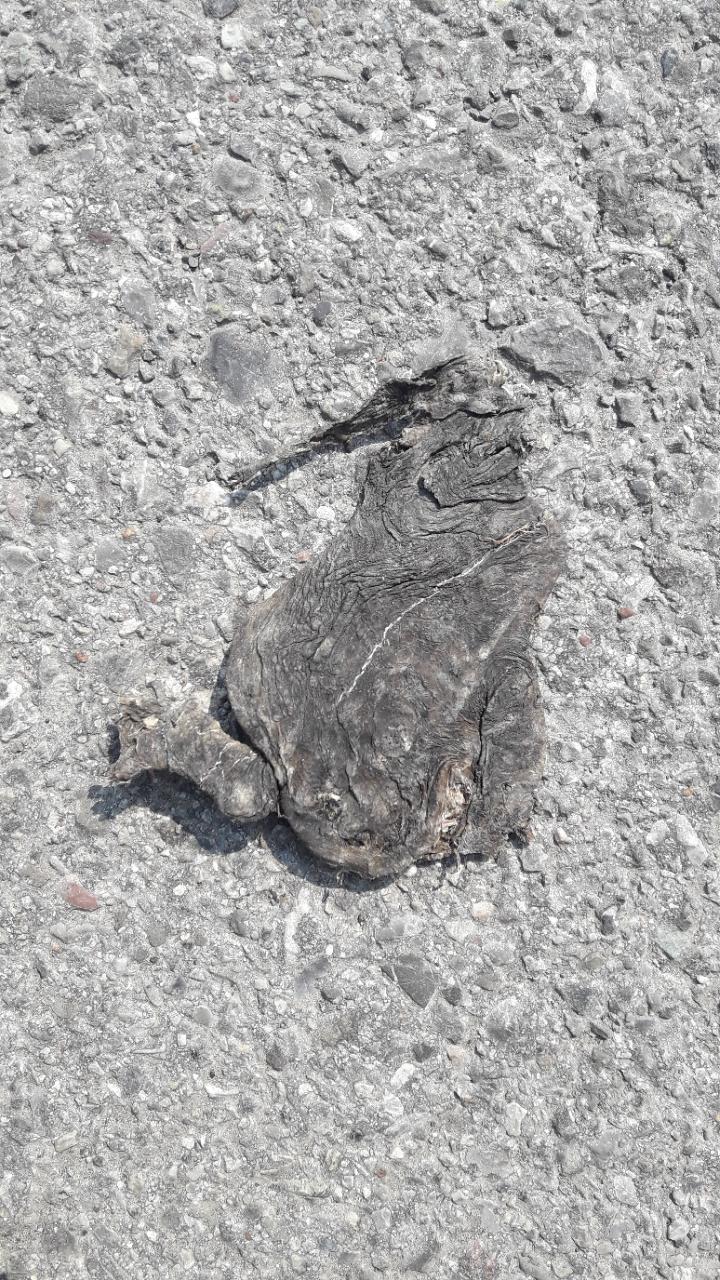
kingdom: Animalia
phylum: Chordata
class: Amphibia
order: Anura
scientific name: Anura
